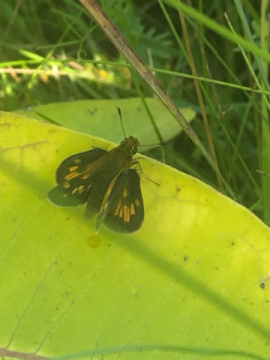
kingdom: Animalia
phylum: Arthropoda
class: Insecta
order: Lepidoptera
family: Hesperiidae
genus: Polites
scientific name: Polites coras
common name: Peck's Skipper
